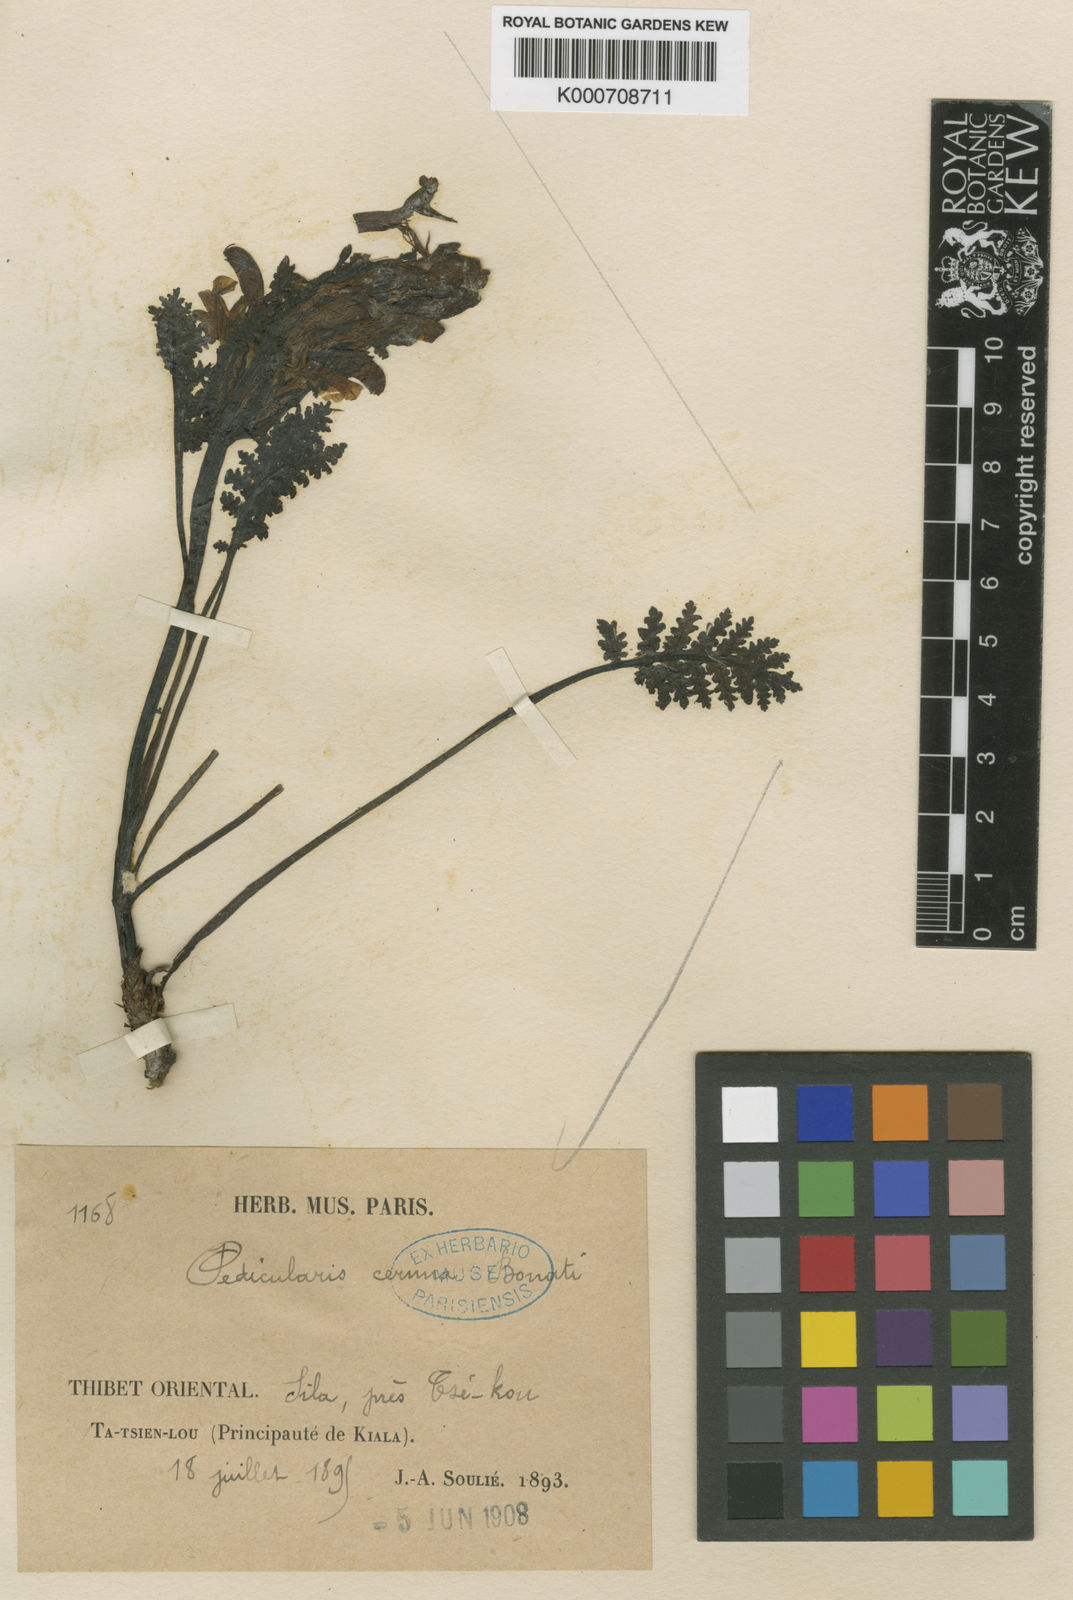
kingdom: Plantae
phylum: Tracheophyta
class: Magnoliopsida
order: Lamiales
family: Orobanchaceae
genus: Pedicularis
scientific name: Pedicularis cernua
